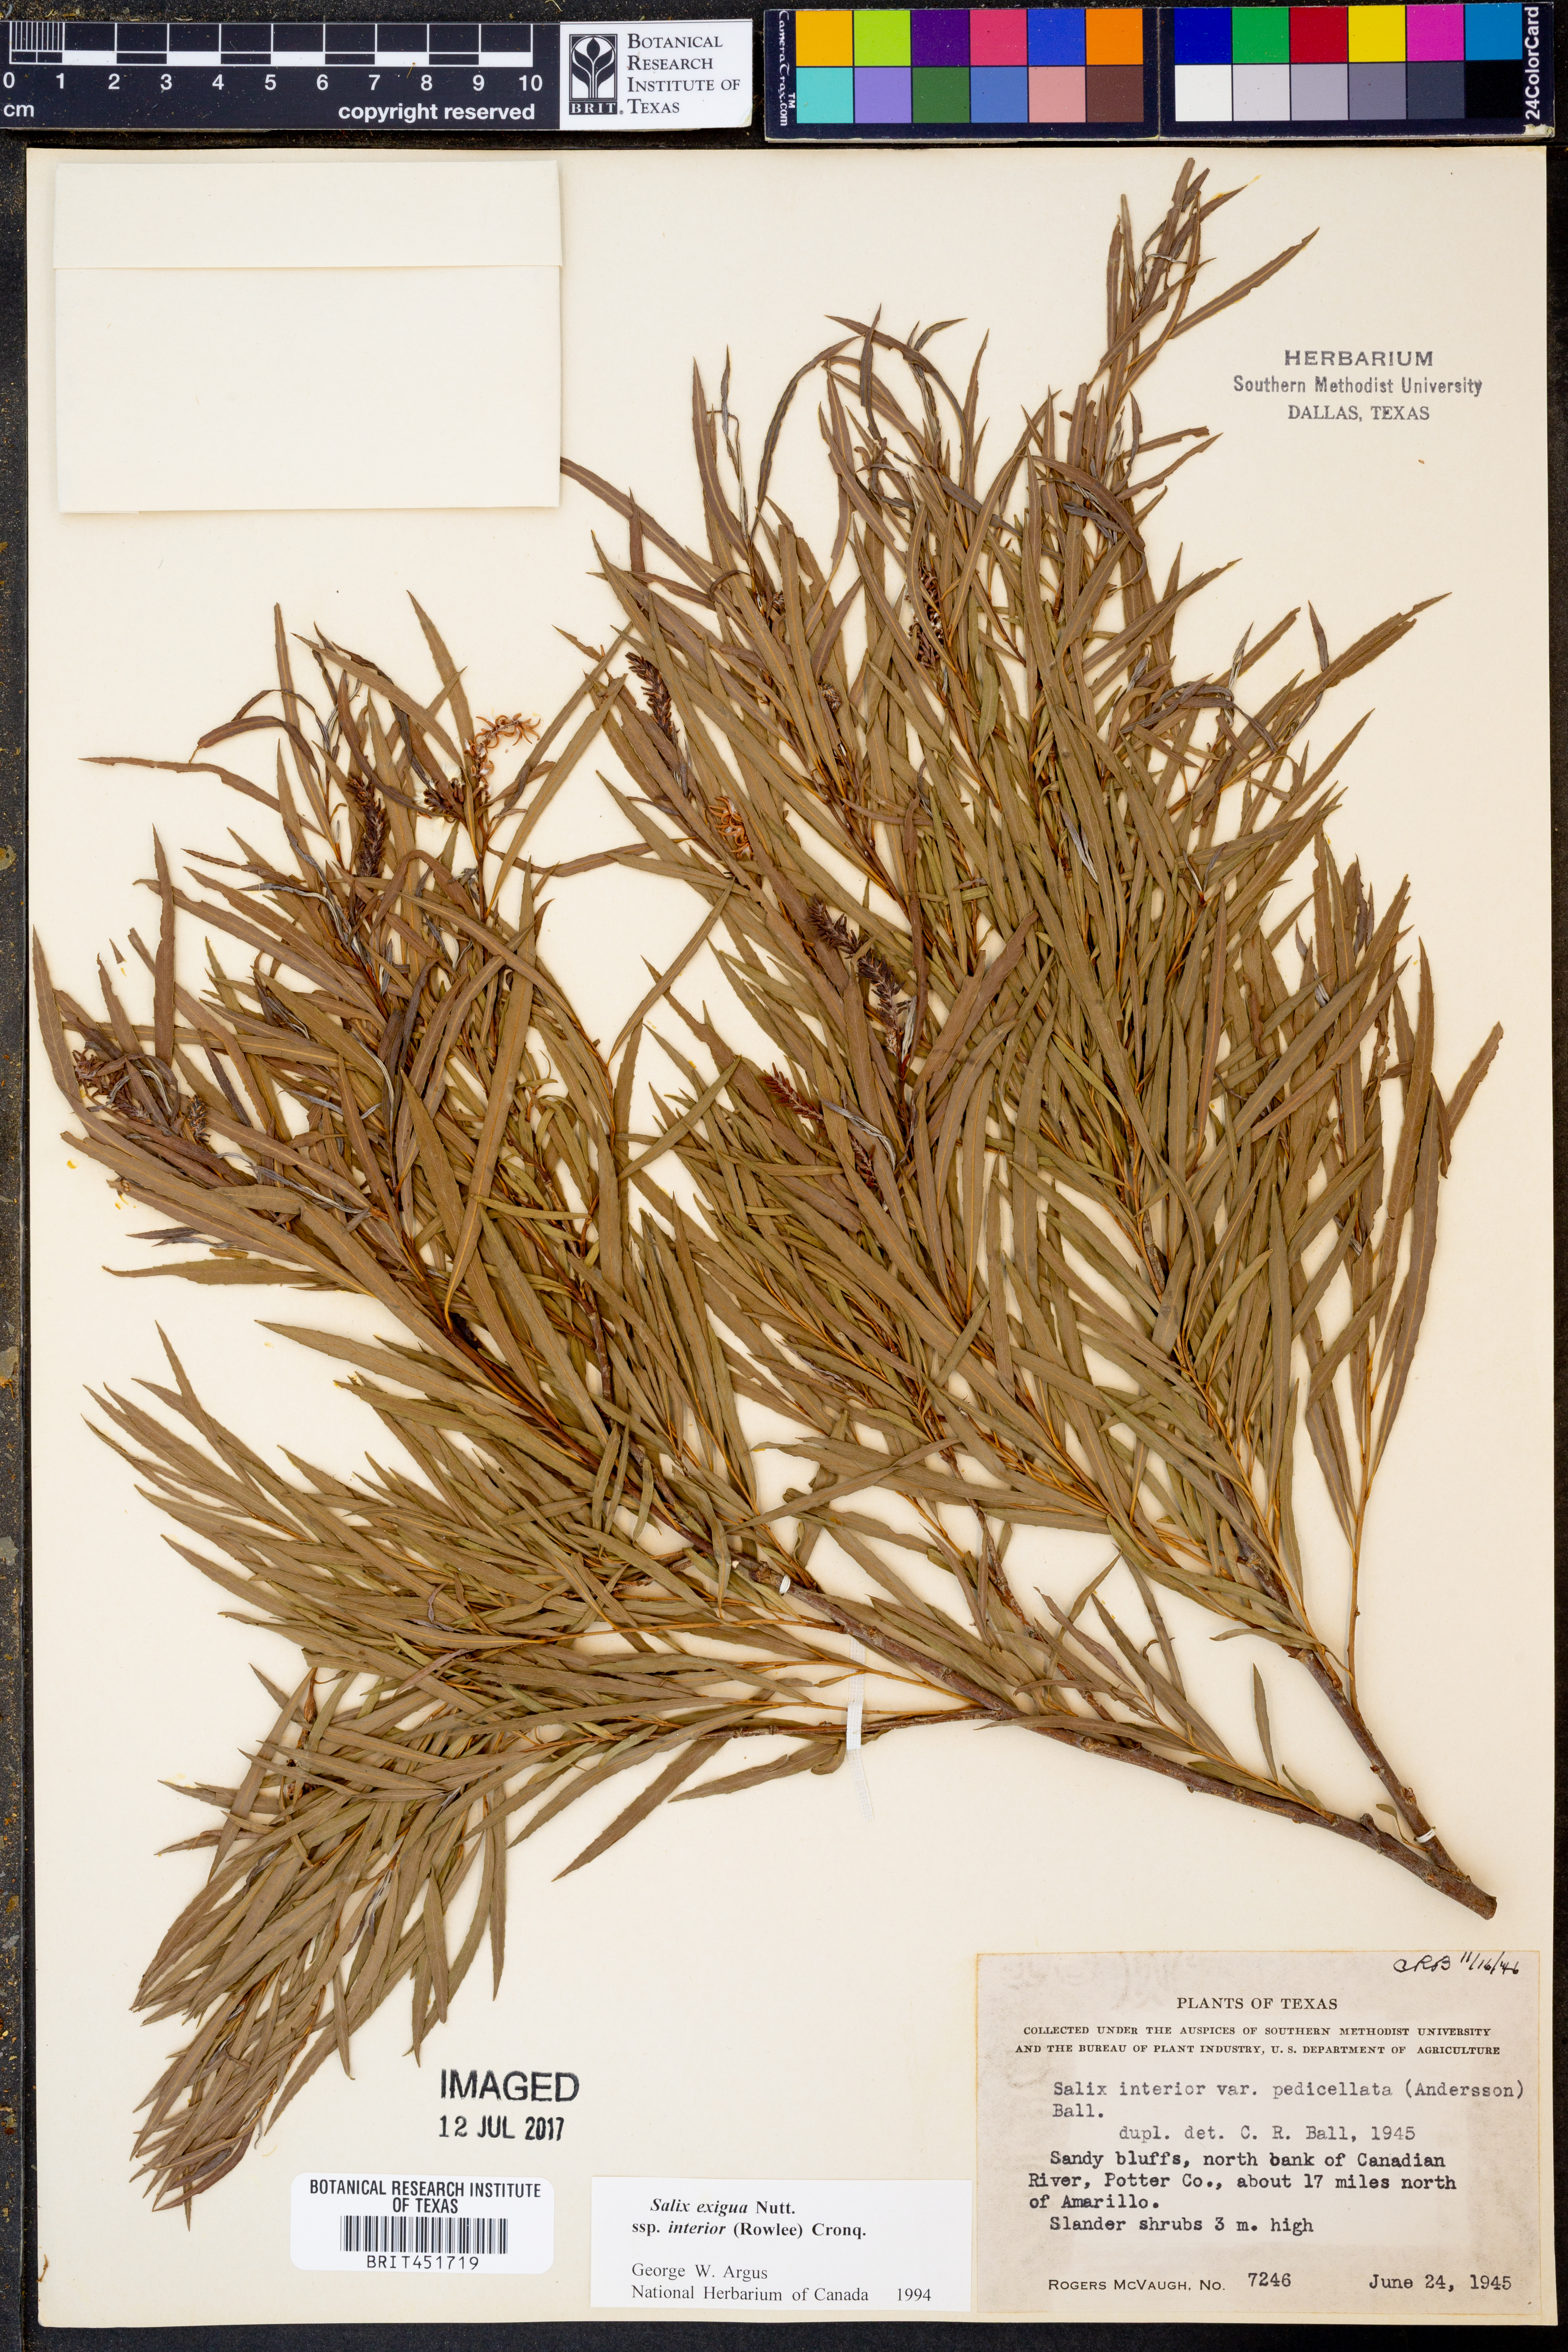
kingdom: Plantae
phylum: Tracheophyta
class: Magnoliopsida
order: Malpighiales
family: Salicaceae
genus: Salix
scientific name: Salix interior
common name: Sandbar willow
